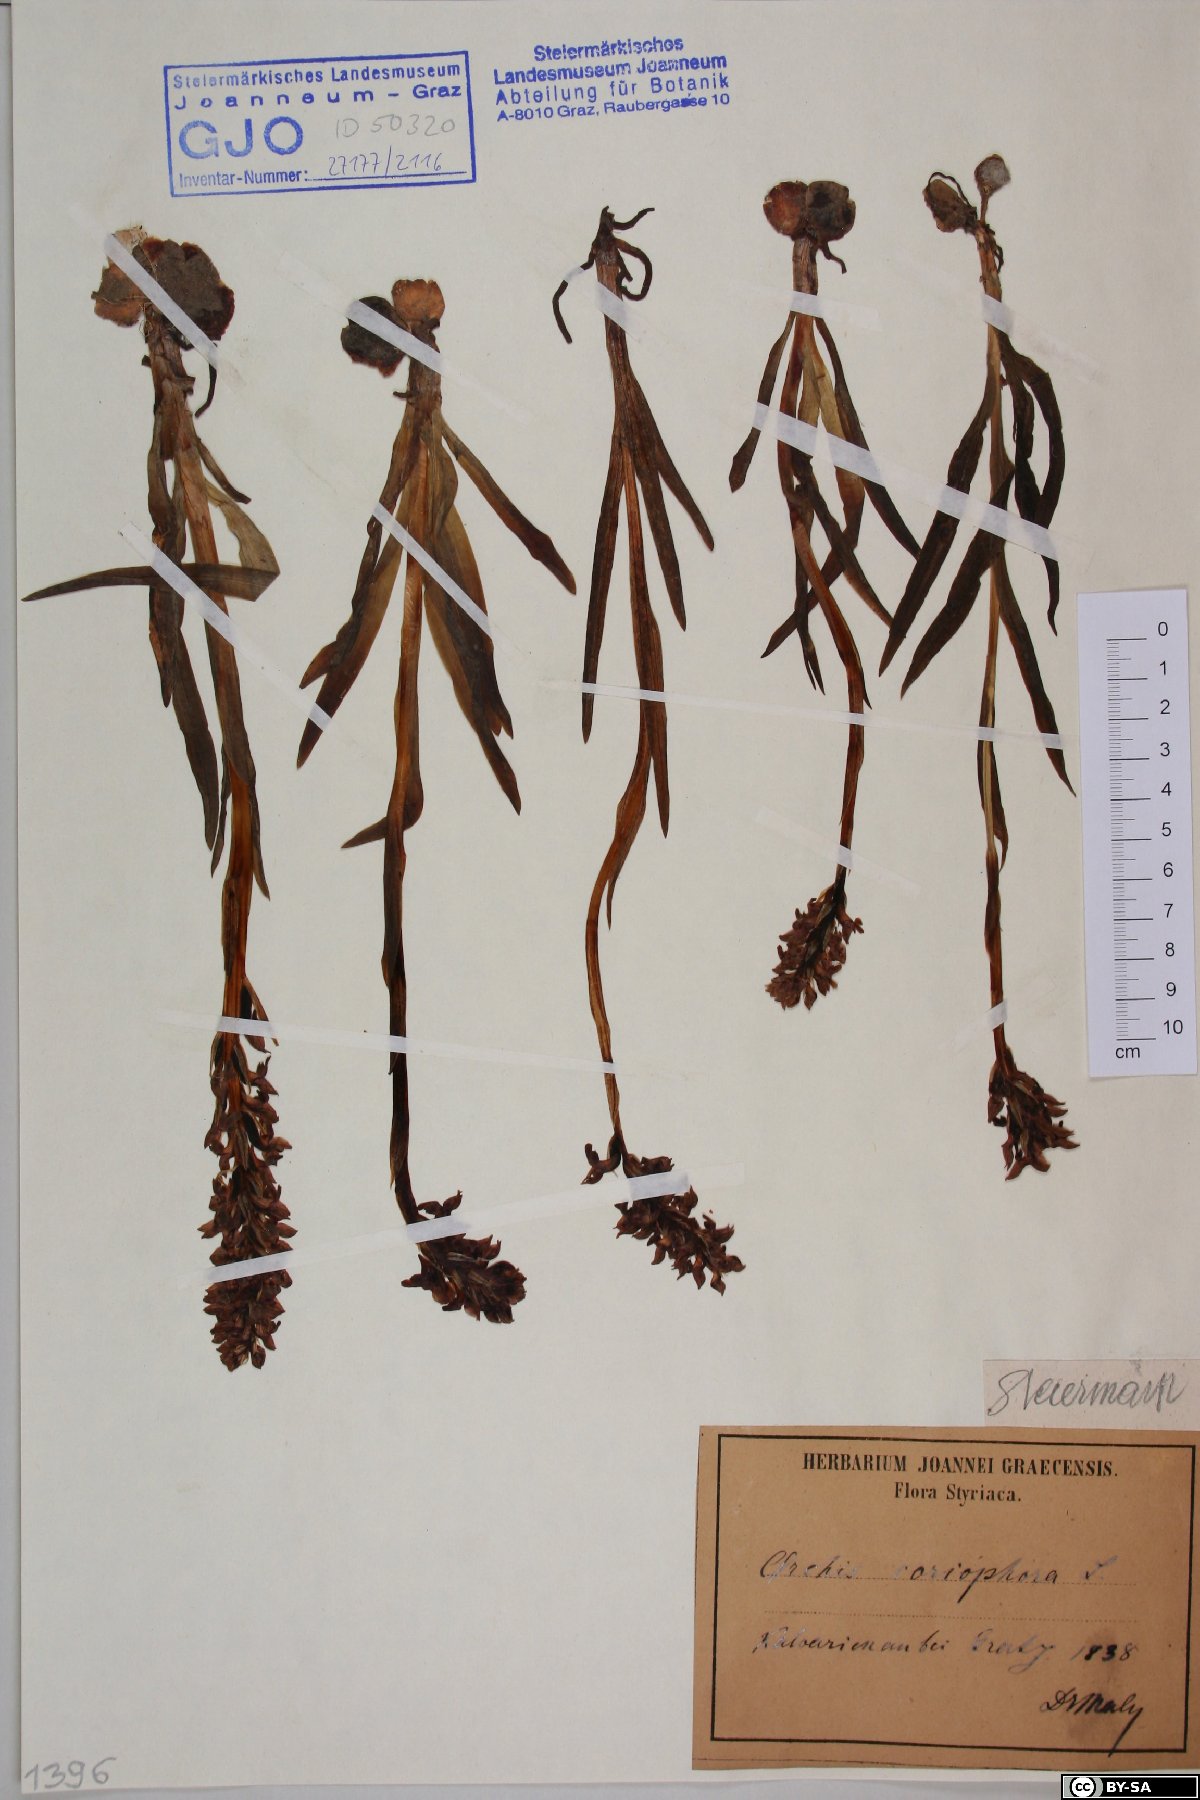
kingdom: Plantae
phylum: Tracheophyta
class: Liliopsida
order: Asparagales
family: Orchidaceae
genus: Anacamptis
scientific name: Anacamptis coriophora
